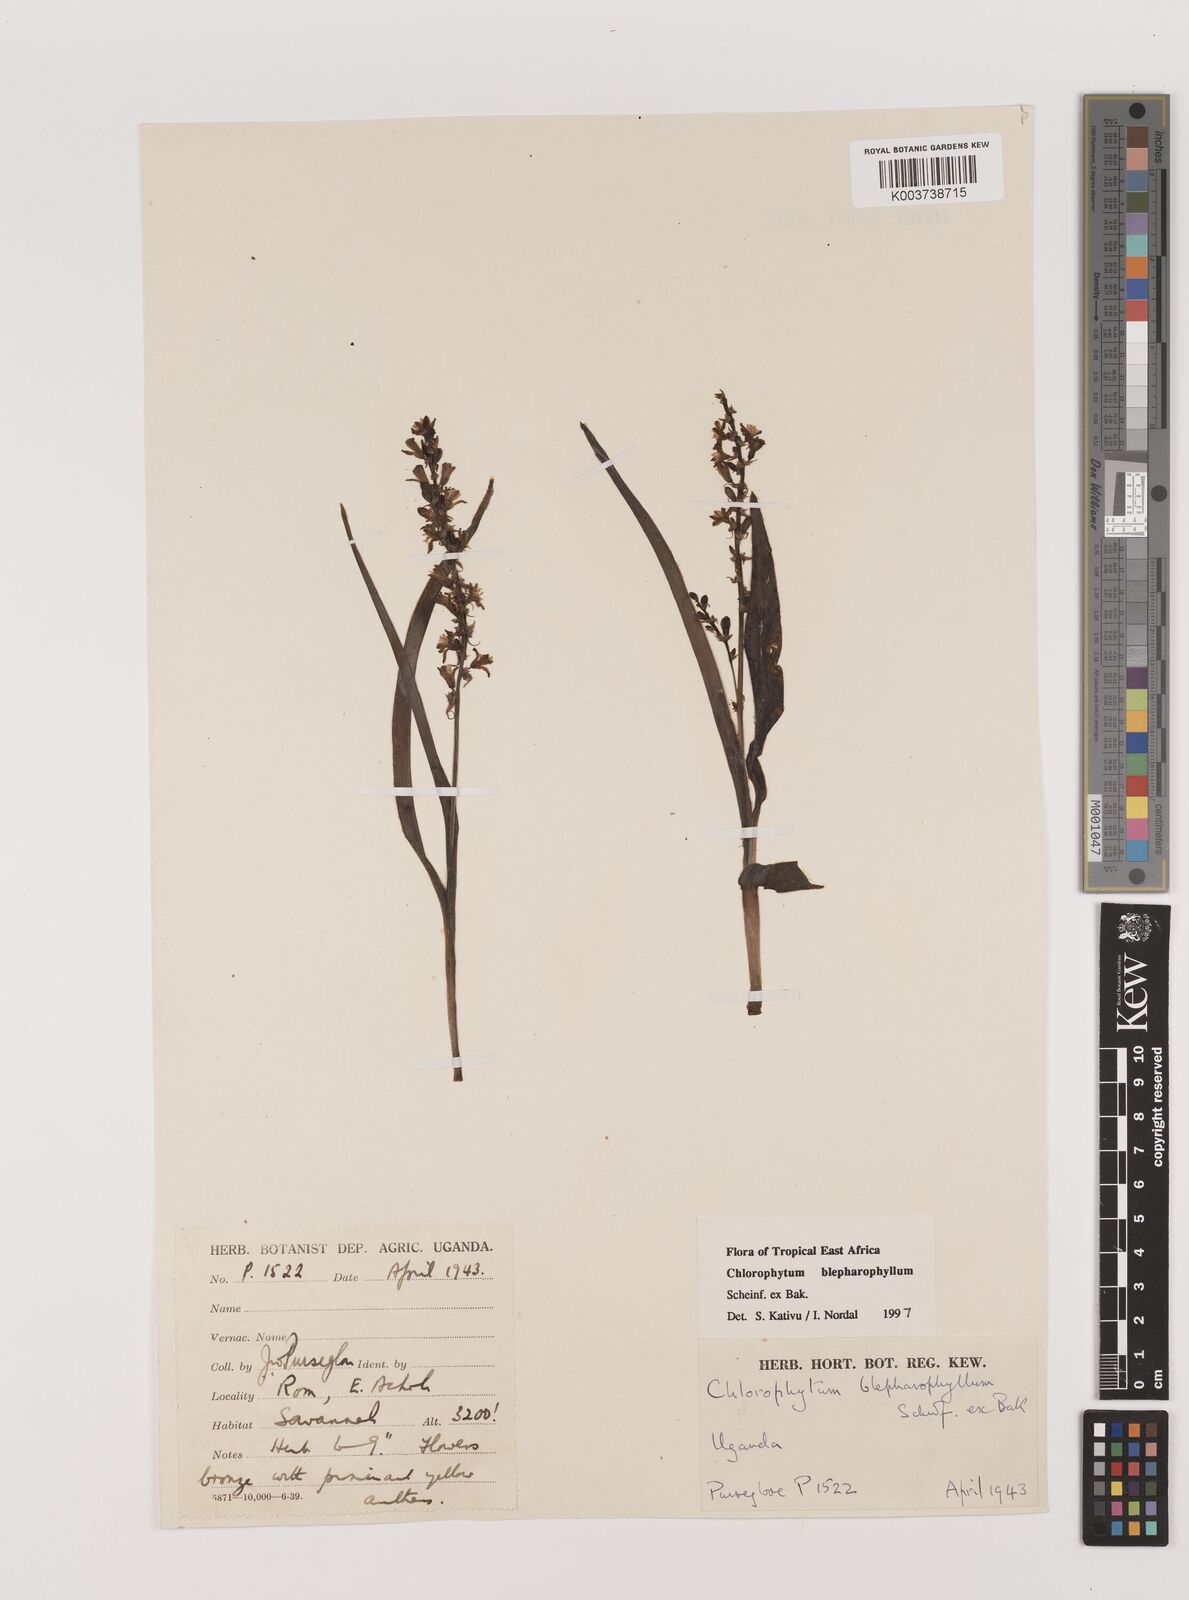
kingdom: Plantae
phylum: Tracheophyta
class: Liliopsida
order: Asparagales
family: Asparagaceae
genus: Chlorophytum
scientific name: Chlorophytum blepharophyllum
